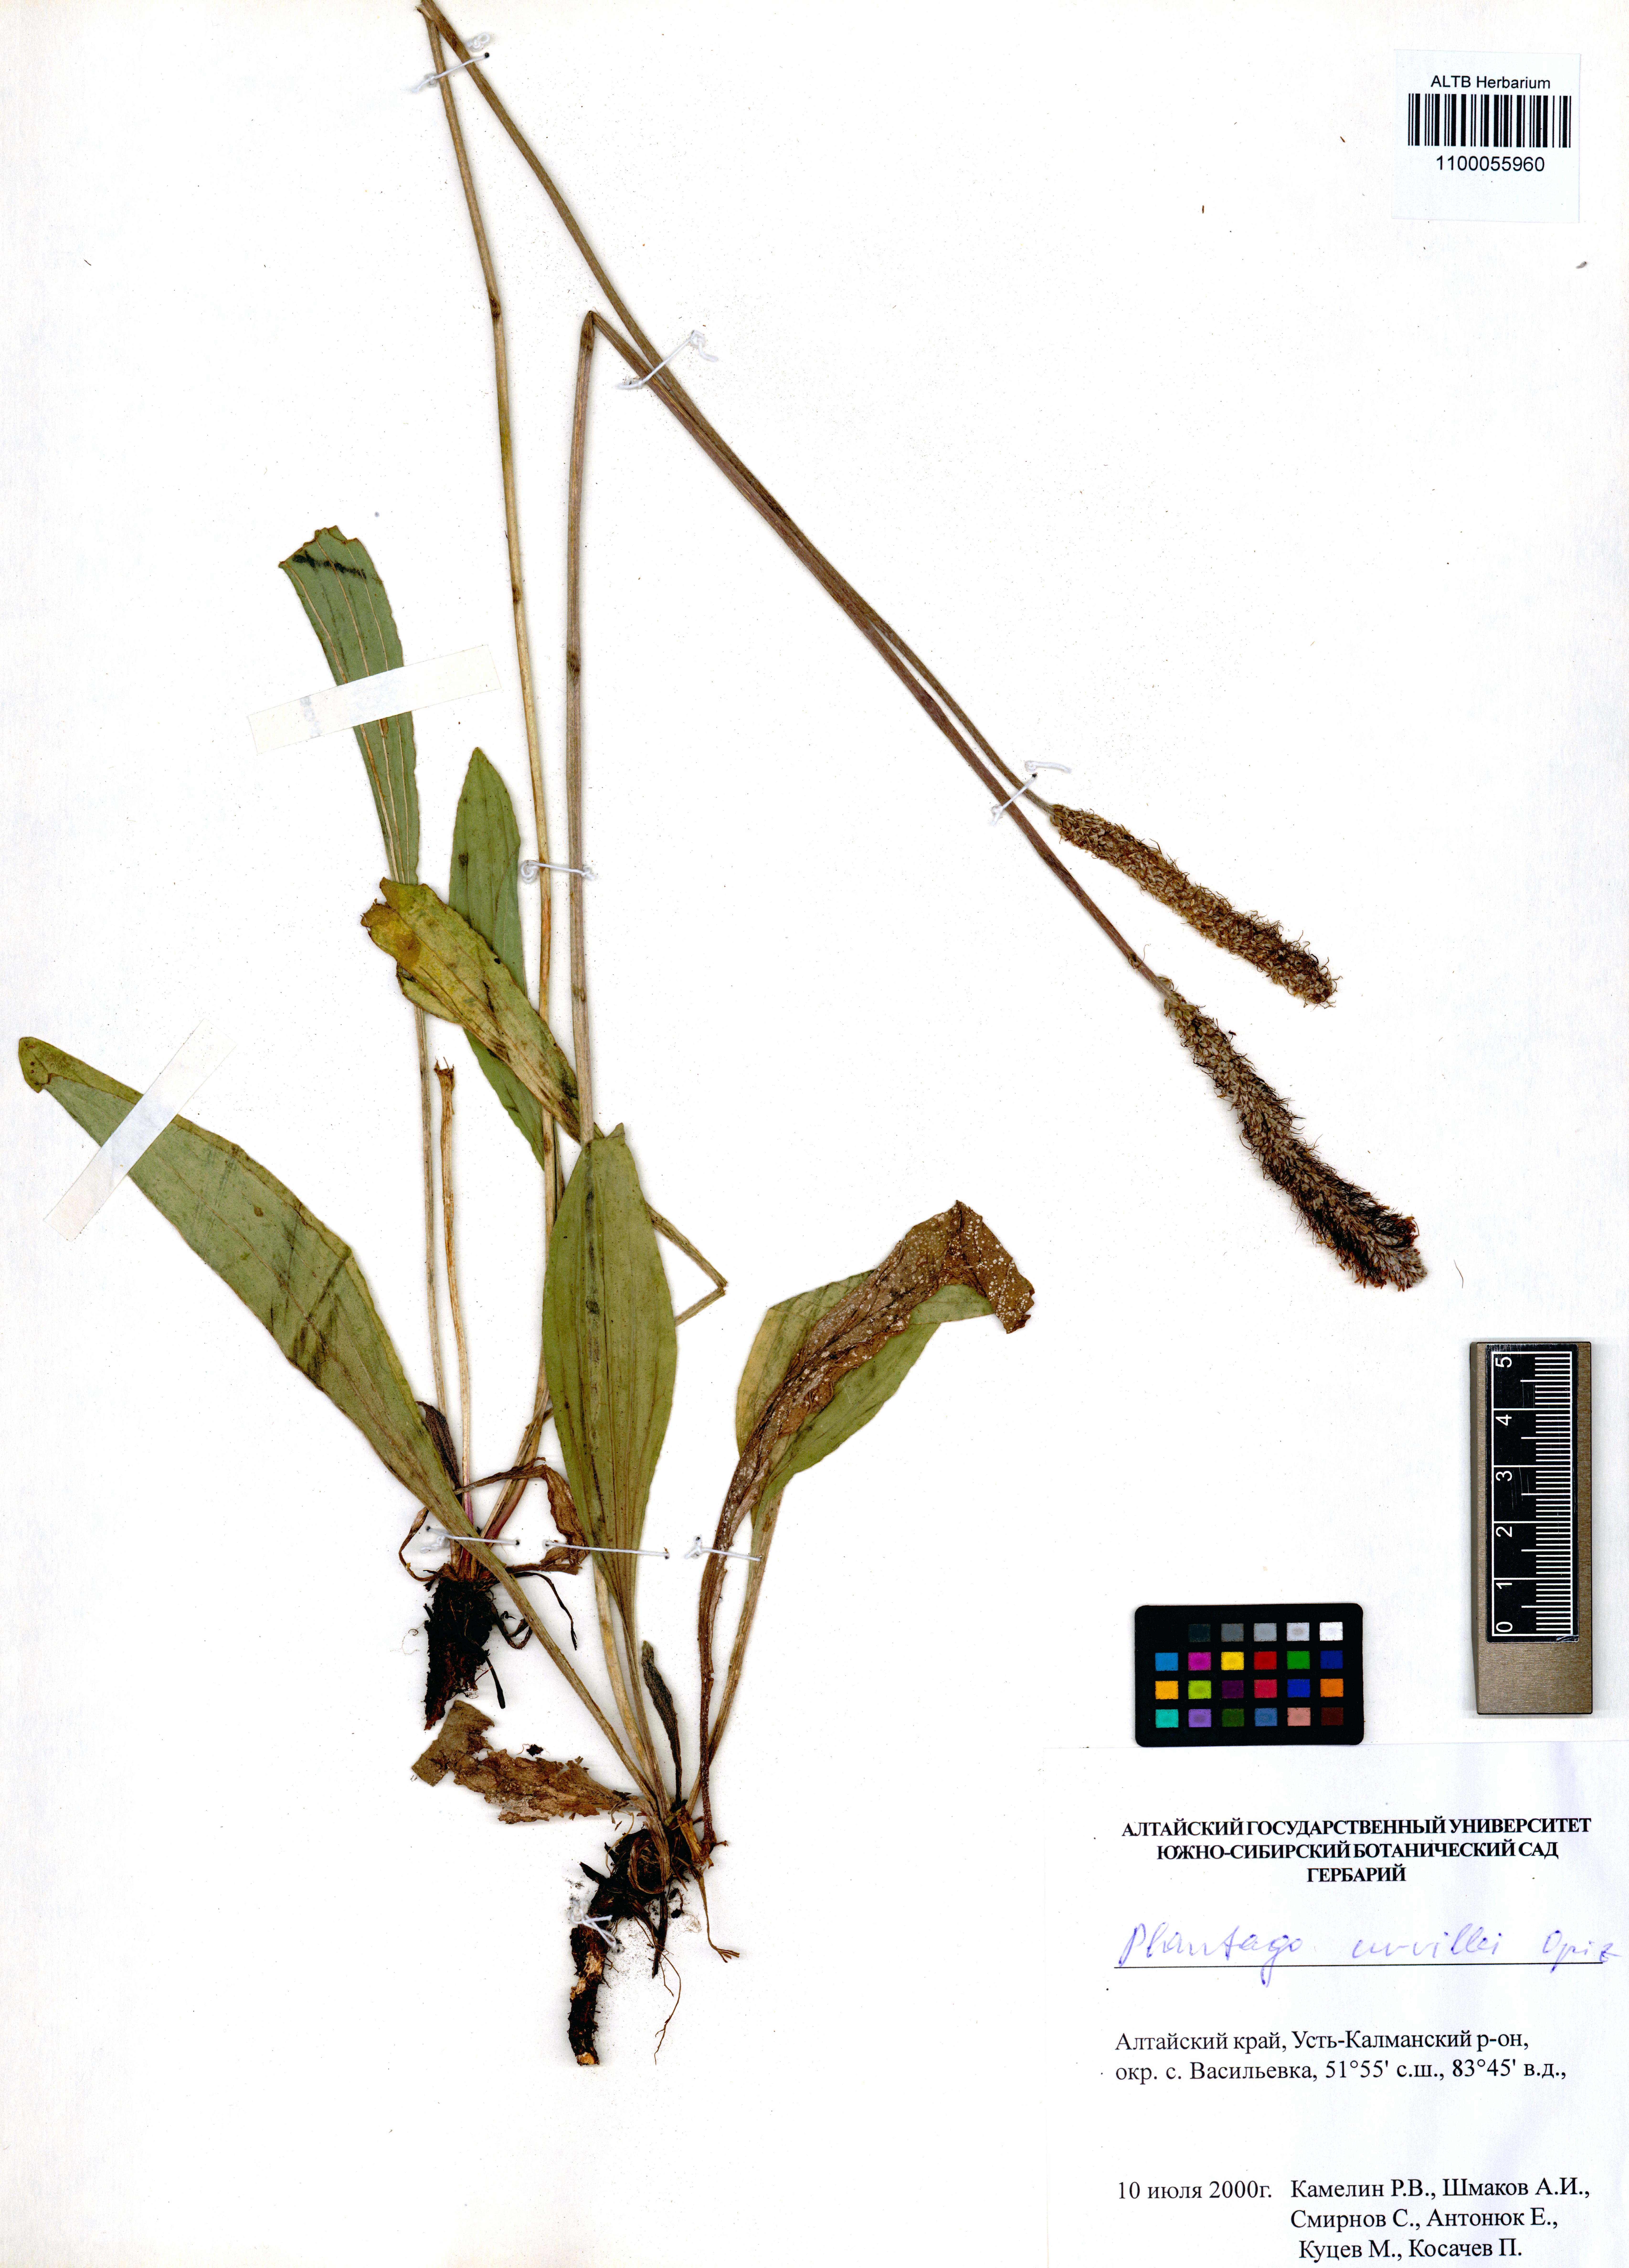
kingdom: Plantae
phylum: Tracheophyta
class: Magnoliopsida
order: Lamiales
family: Plantaginaceae
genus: Plantago
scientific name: Plantago urvillei
